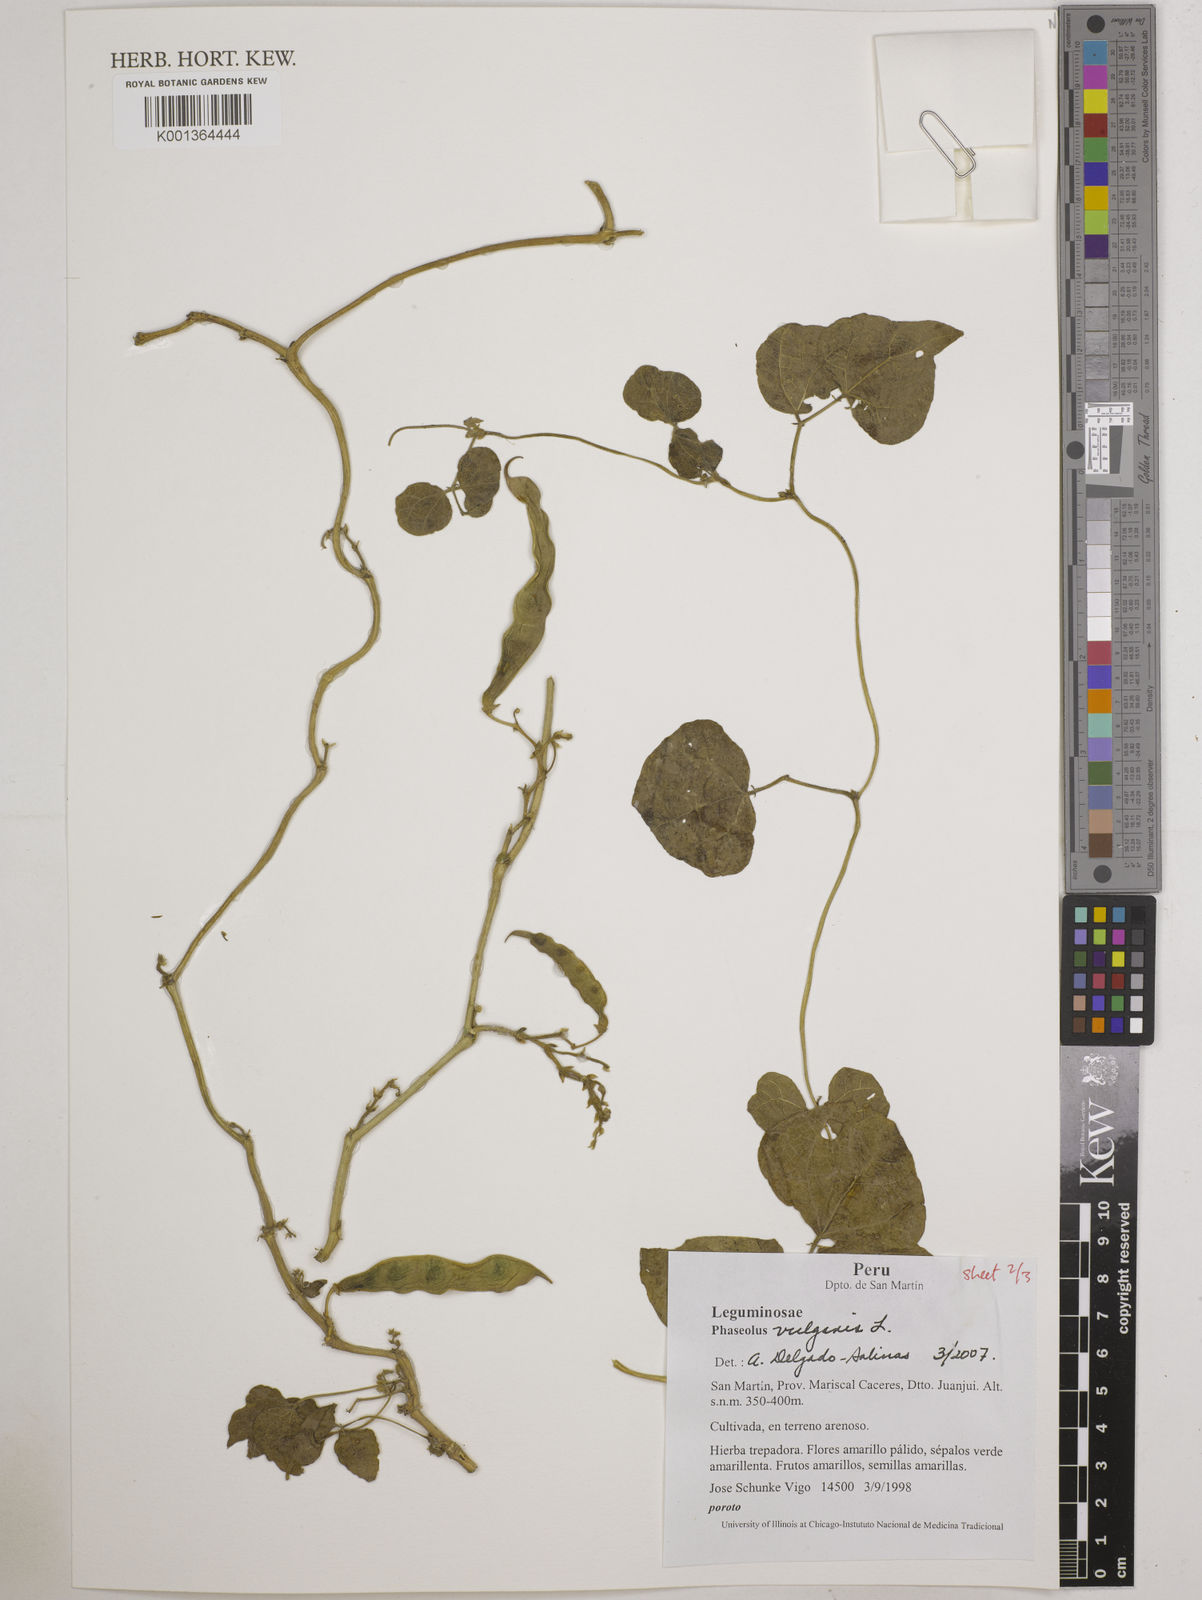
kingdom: Plantae
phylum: Tracheophyta
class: Magnoliopsida
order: Fabales
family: Fabaceae
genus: Phaseolus
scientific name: Phaseolus vulgaris
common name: Bean
